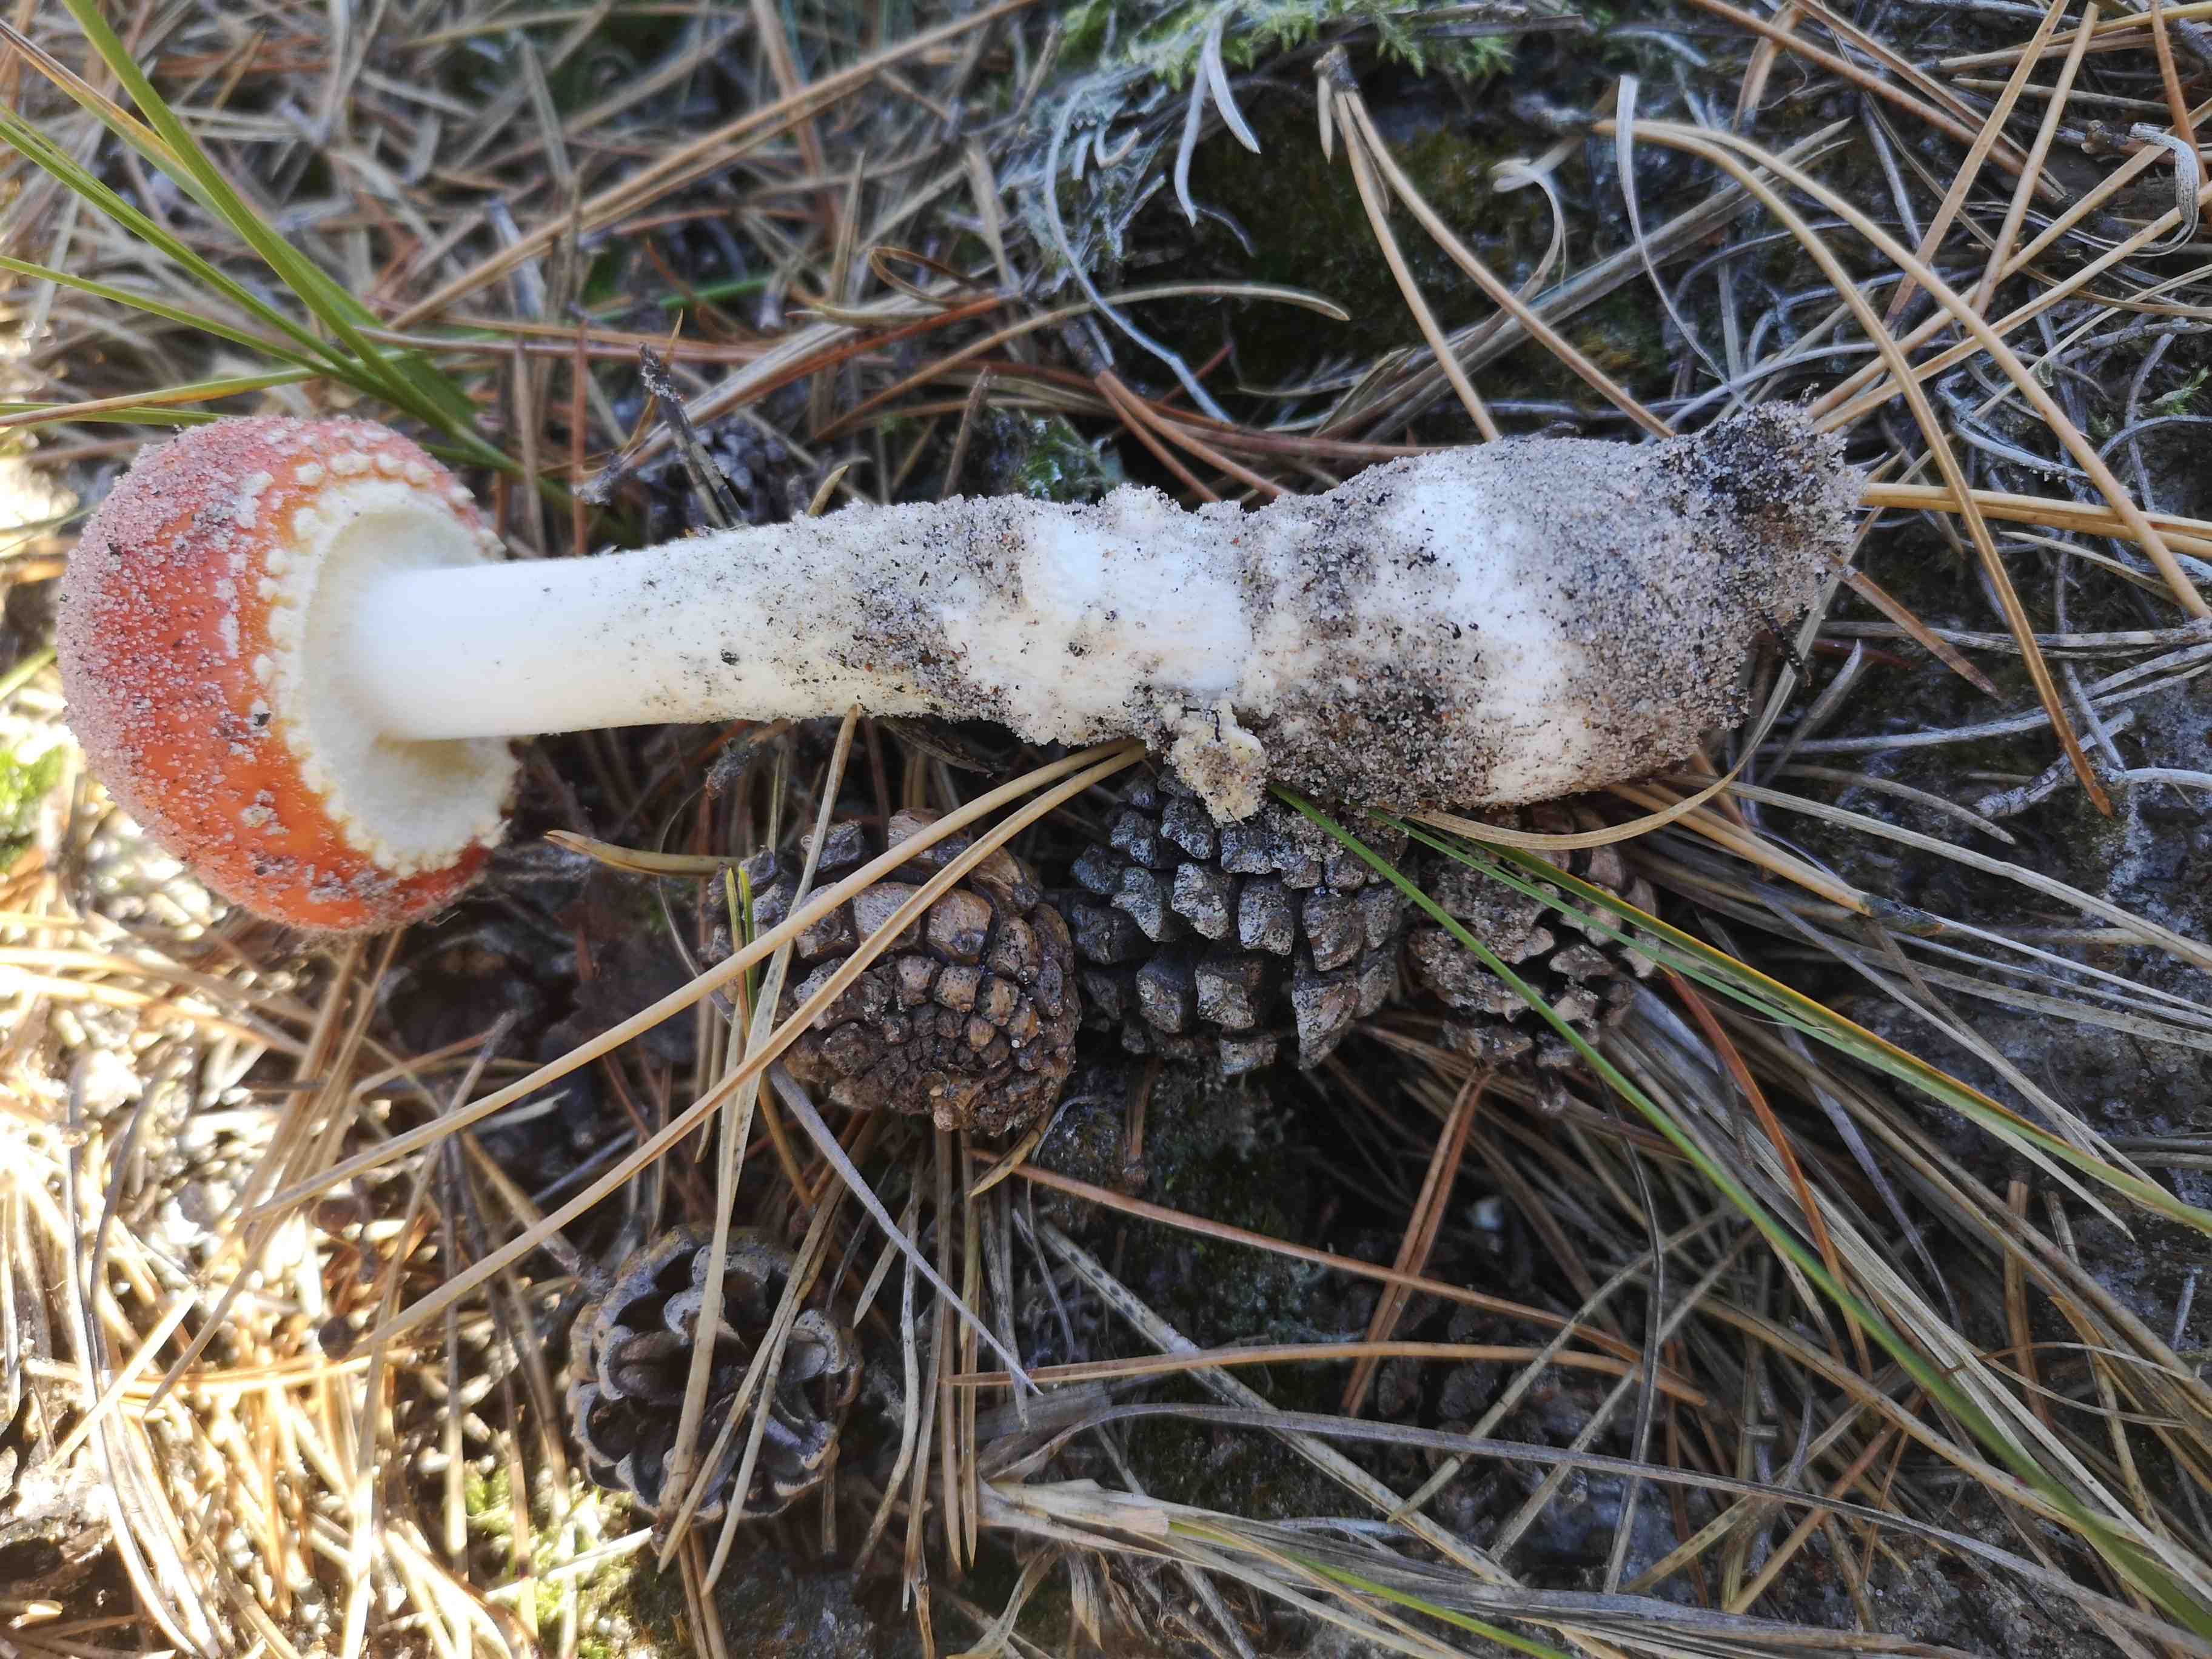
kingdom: Fungi
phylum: Basidiomycota
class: Agaricomycetes
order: Agaricales
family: Amanitaceae
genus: Amanita
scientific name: Amanita muscaria
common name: rød fluesvamp
